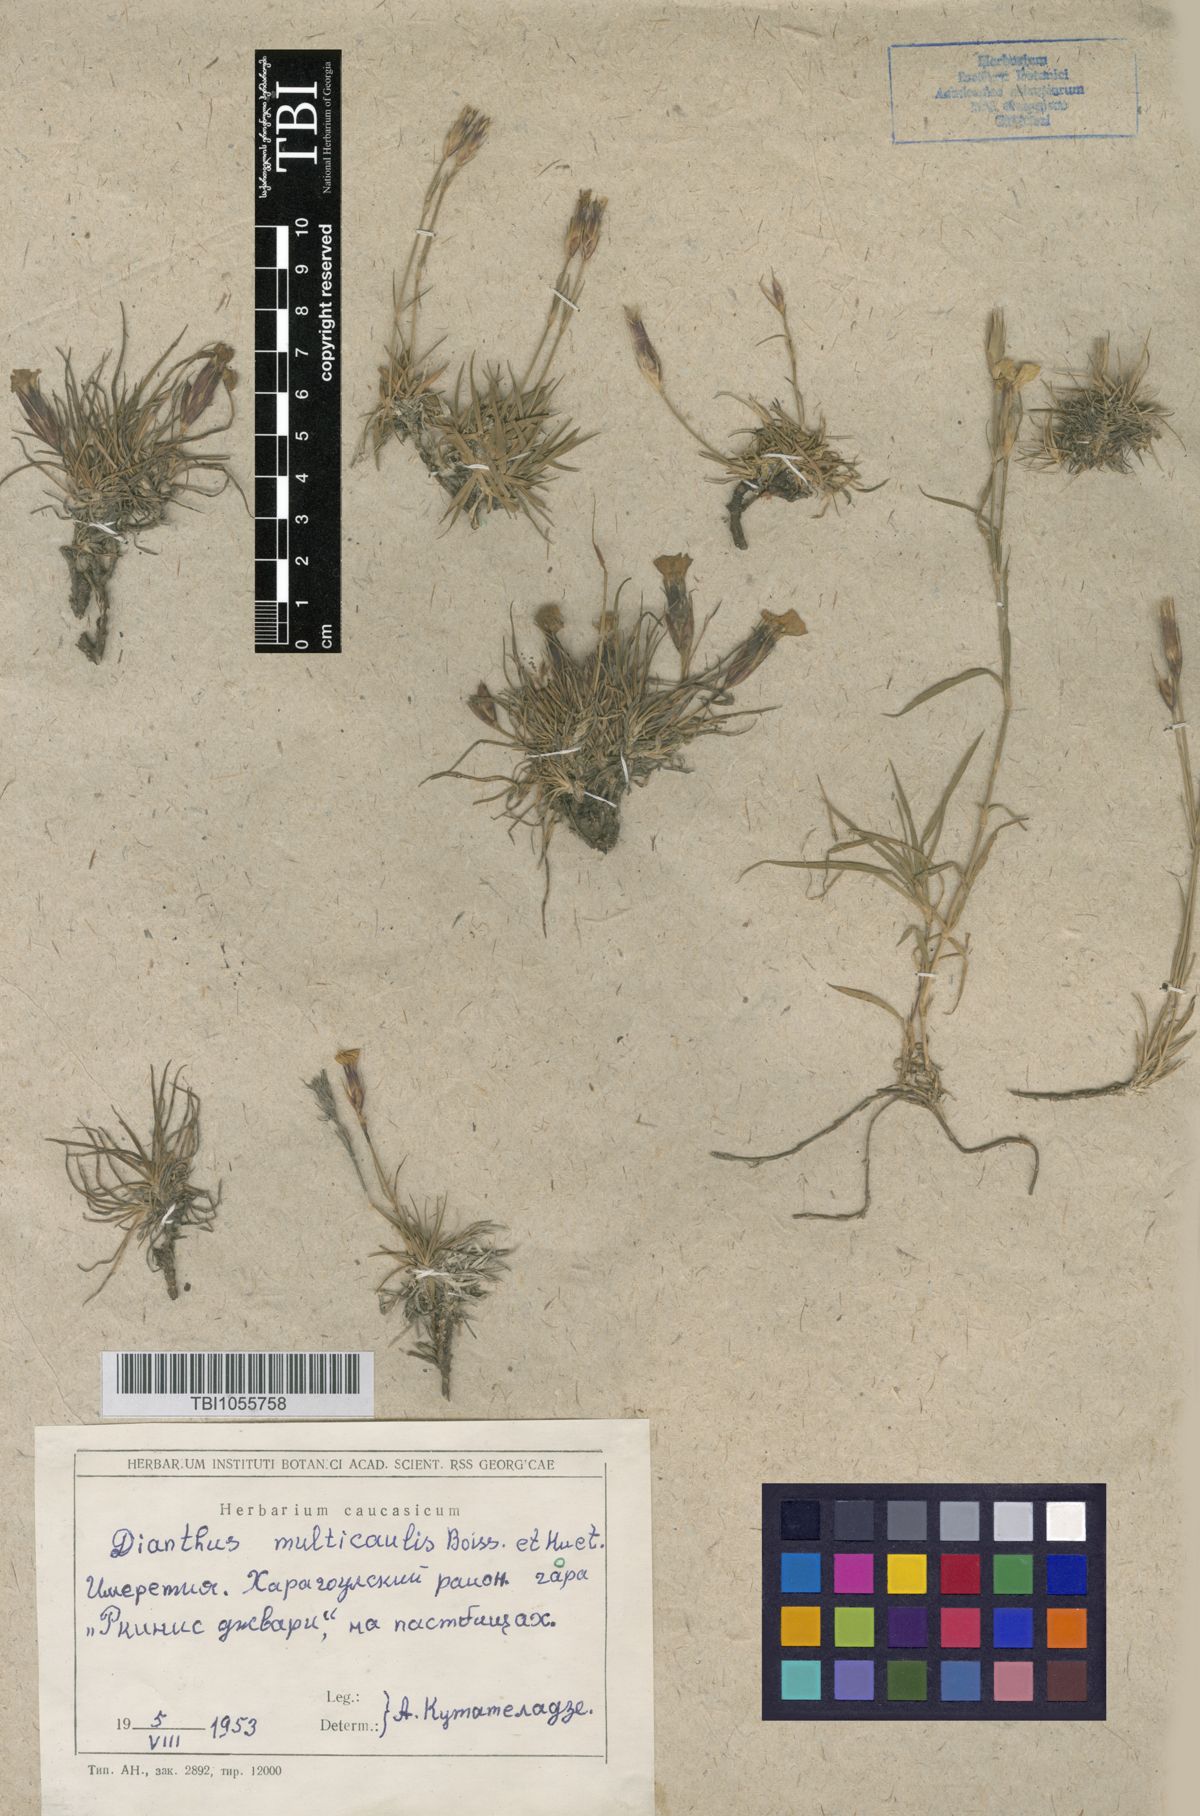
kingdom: Plantae
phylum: Tracheophyta
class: Magnoliopsida
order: Caryophyllales
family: Caryophyllaceae
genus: Dianthus
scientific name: Dianthus cretaceus
